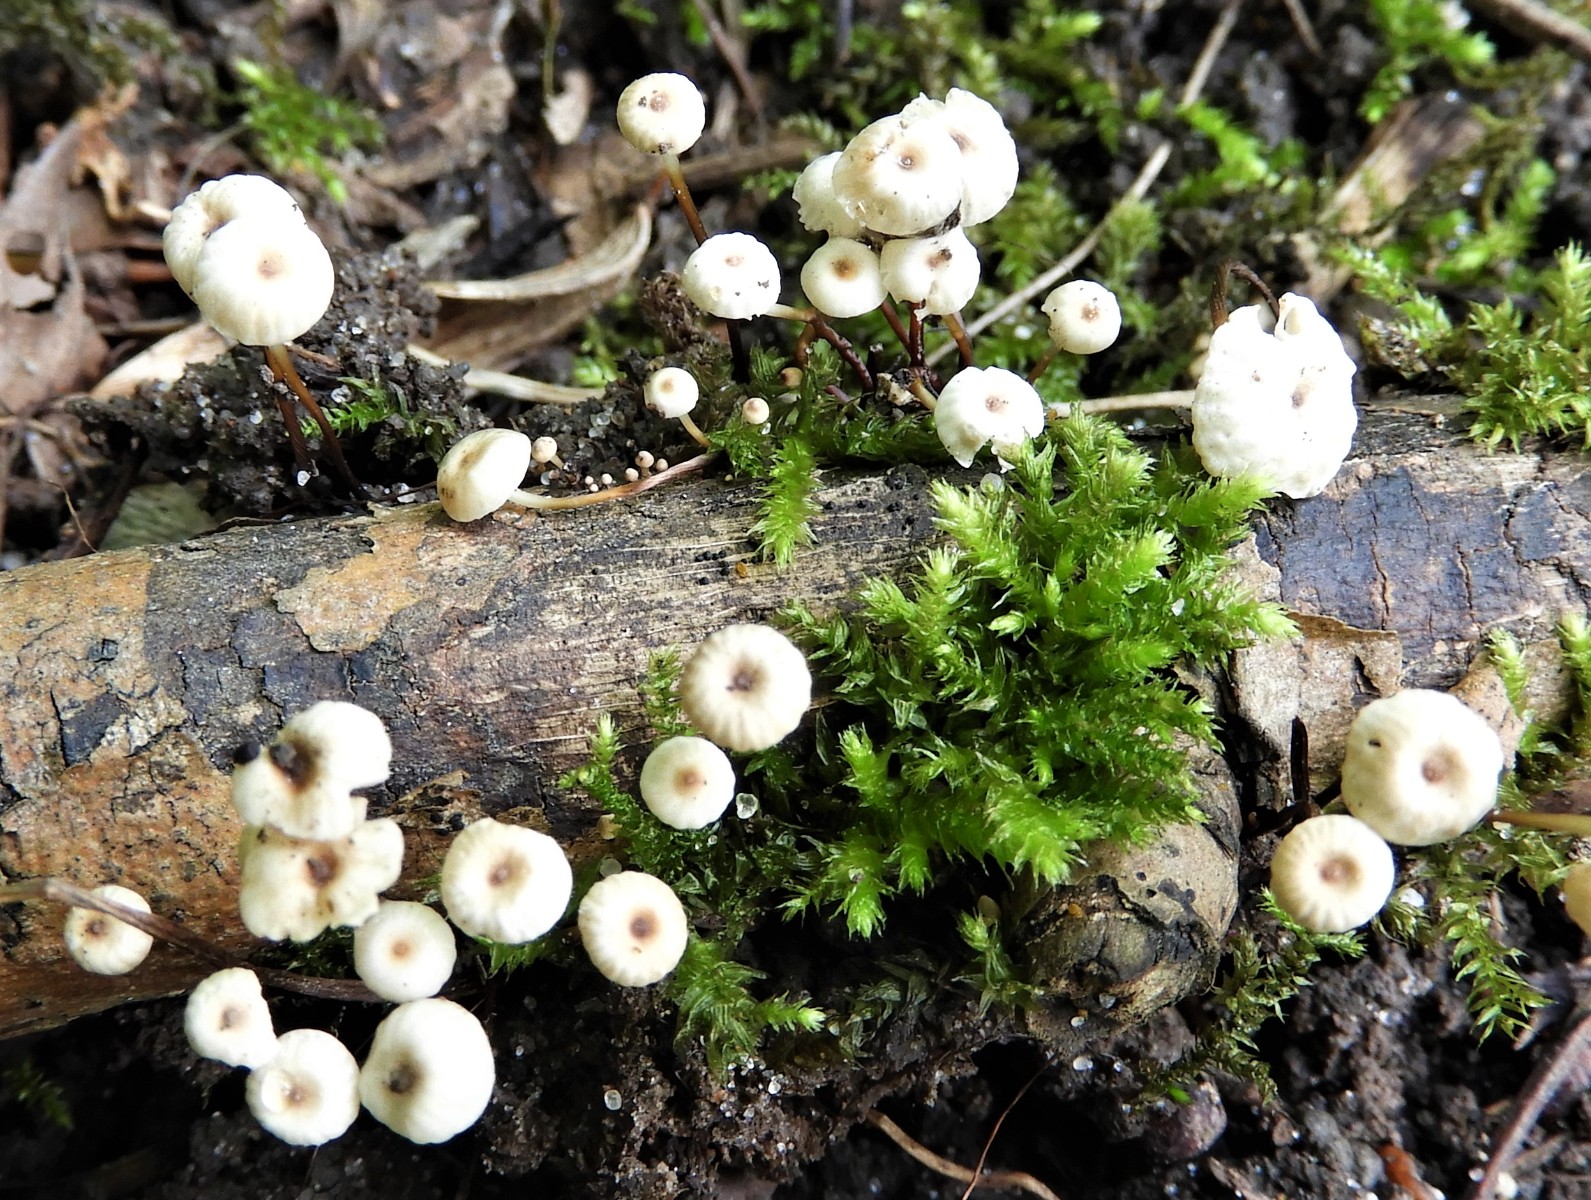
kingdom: Fungi
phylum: Basidiomycota
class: Agaricomycetes
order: Agaricales
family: Marasmiaceae
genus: Marasmius
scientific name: Marasmius rotula
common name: hjul-bruskhat
